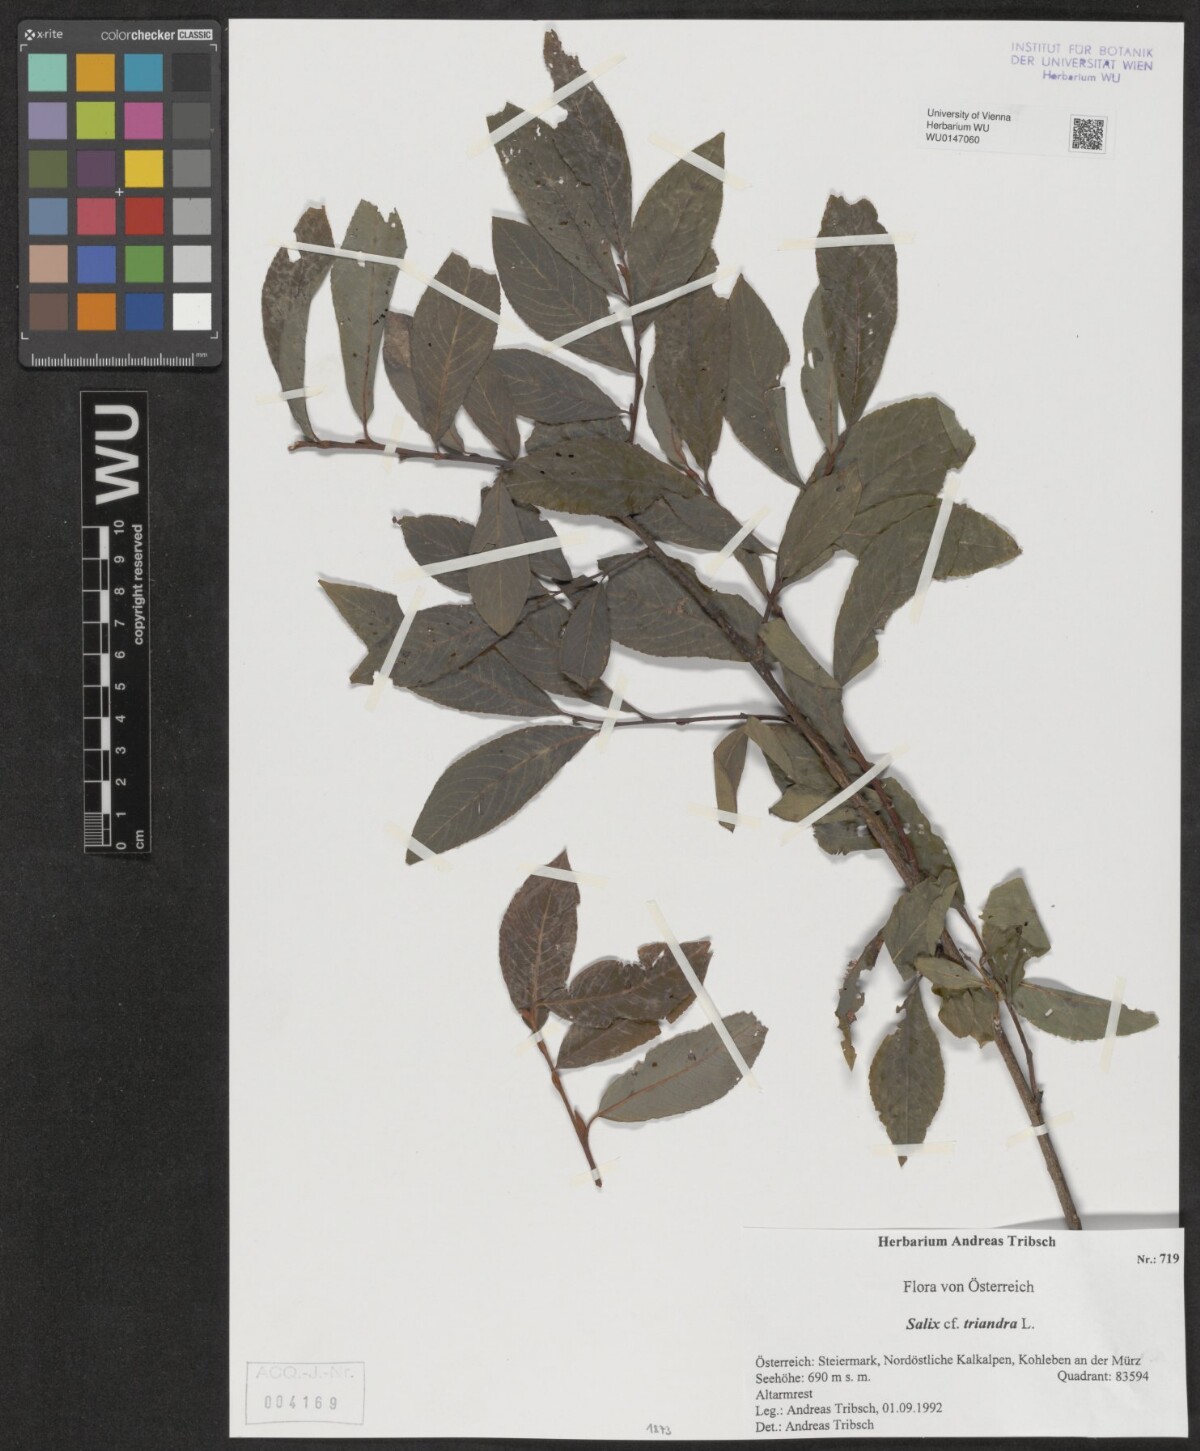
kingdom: Plantae
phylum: Tracheophyta
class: Magnoliopsida
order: Malpighiales
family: Salicaceae
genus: Salix
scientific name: Salix triandra
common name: Almond willow
